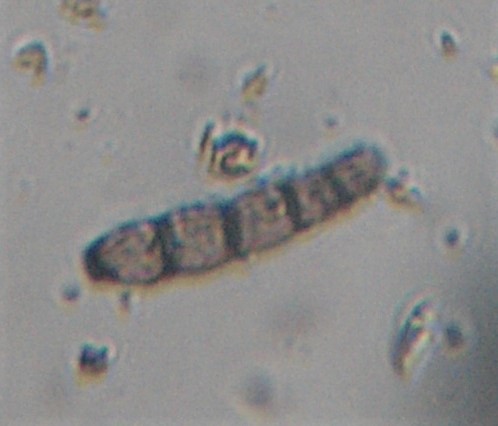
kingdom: Fungi
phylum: Ascomycota
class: Sordariomycetes
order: Calosphaeriales
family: Calosphaeriaceae
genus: Calosphaeria
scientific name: Calosphaeria pulchella
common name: smuk slyngkerne
